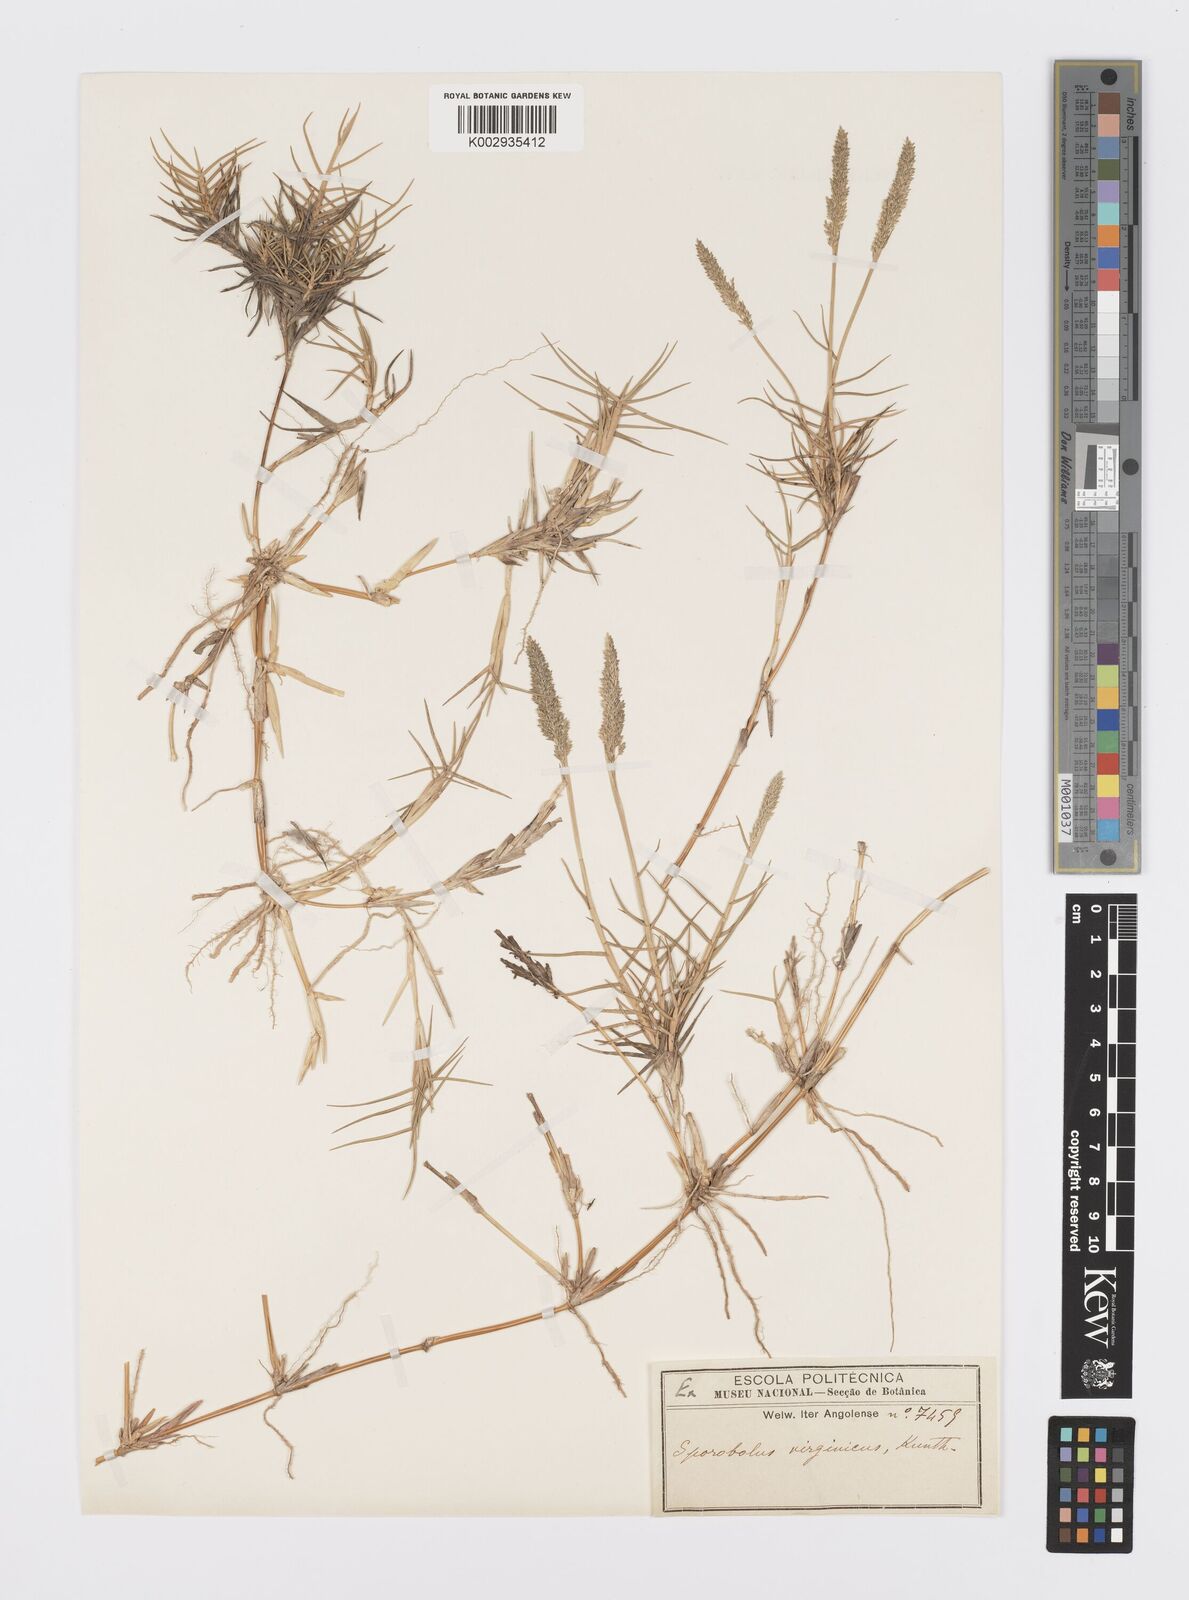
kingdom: Plantae
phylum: Tracheophyta
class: Liliopsida
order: Poales
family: Poaceae
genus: Sporobolus
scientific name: Sporobolus virginicus
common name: Beach dropseed
